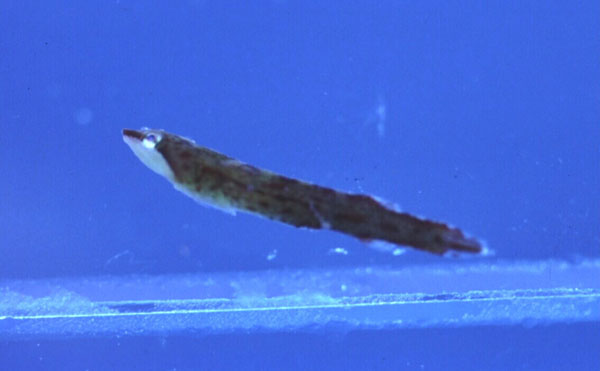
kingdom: Animalia
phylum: Chordata
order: Gobiesociformes
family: Gobiesocidae
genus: Lissonanchus
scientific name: Lissonanchus lusherae
